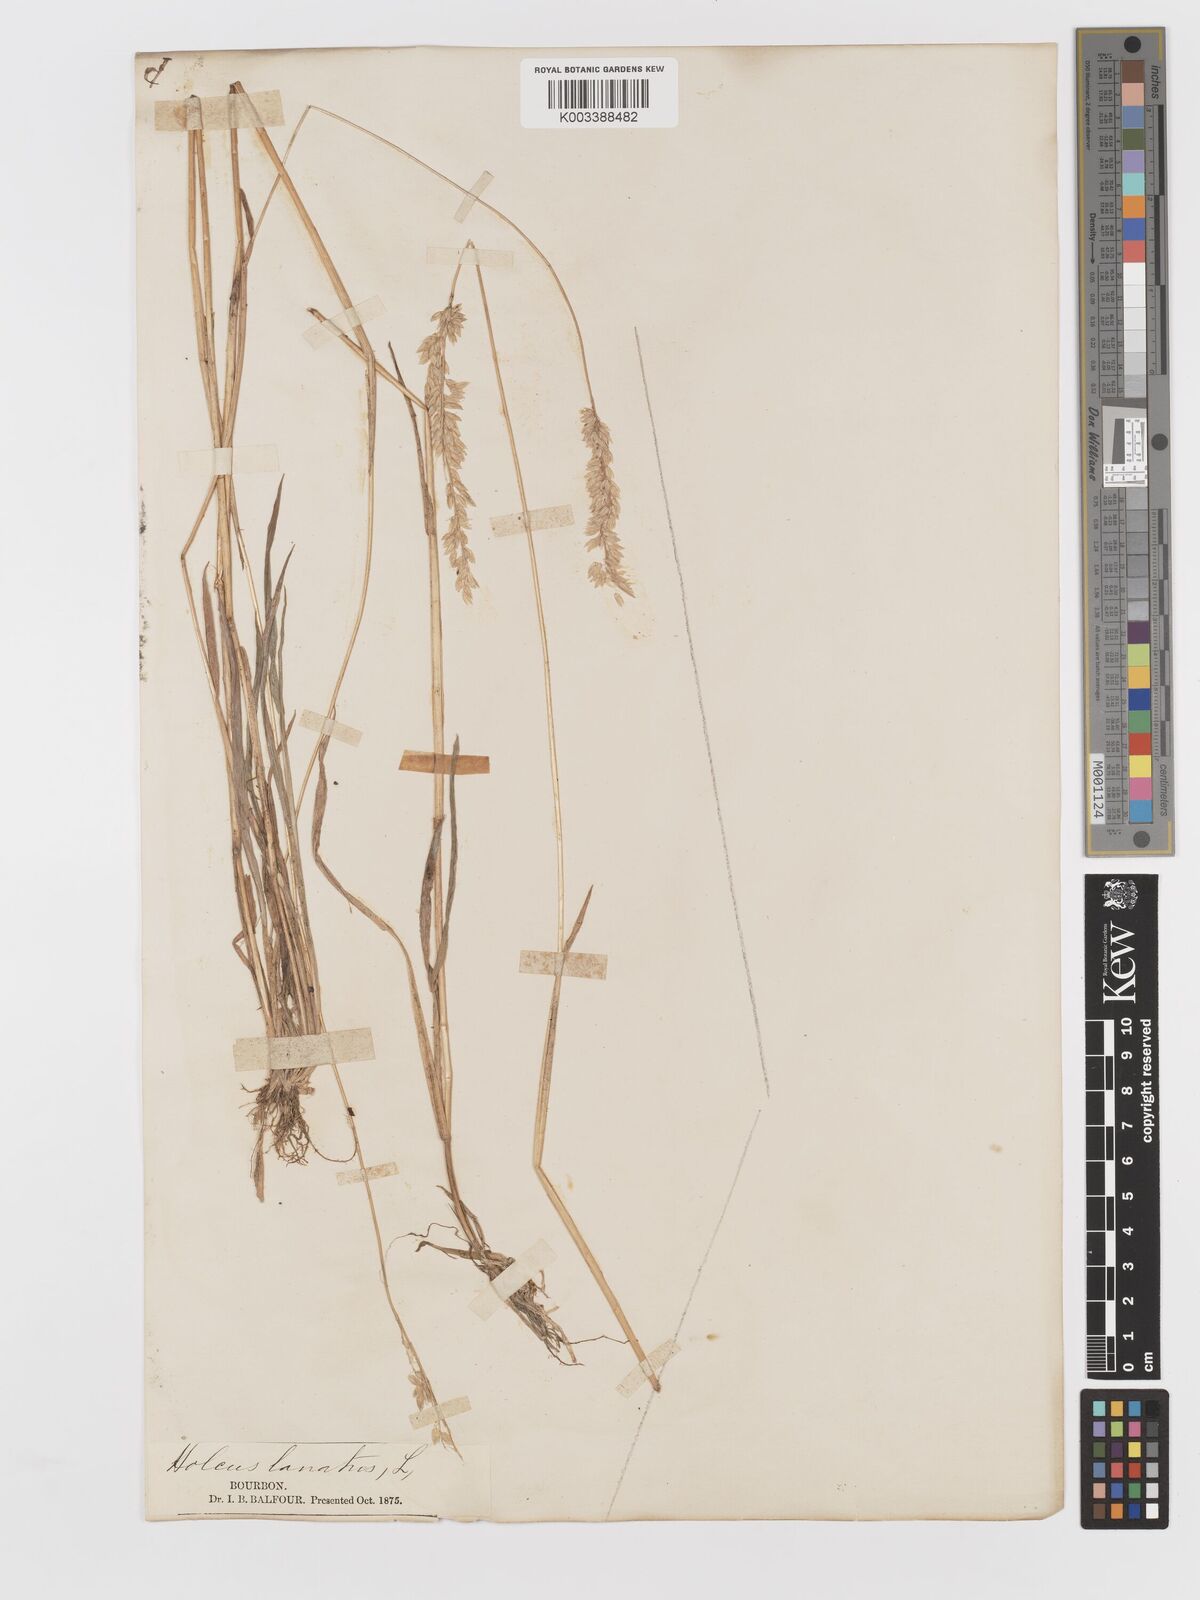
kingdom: Plantae
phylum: Tracheophyta
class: Liliopsida
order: Poales
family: Poaceae
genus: Holcus
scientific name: Holcus lanatus
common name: Yorkshire-fog
